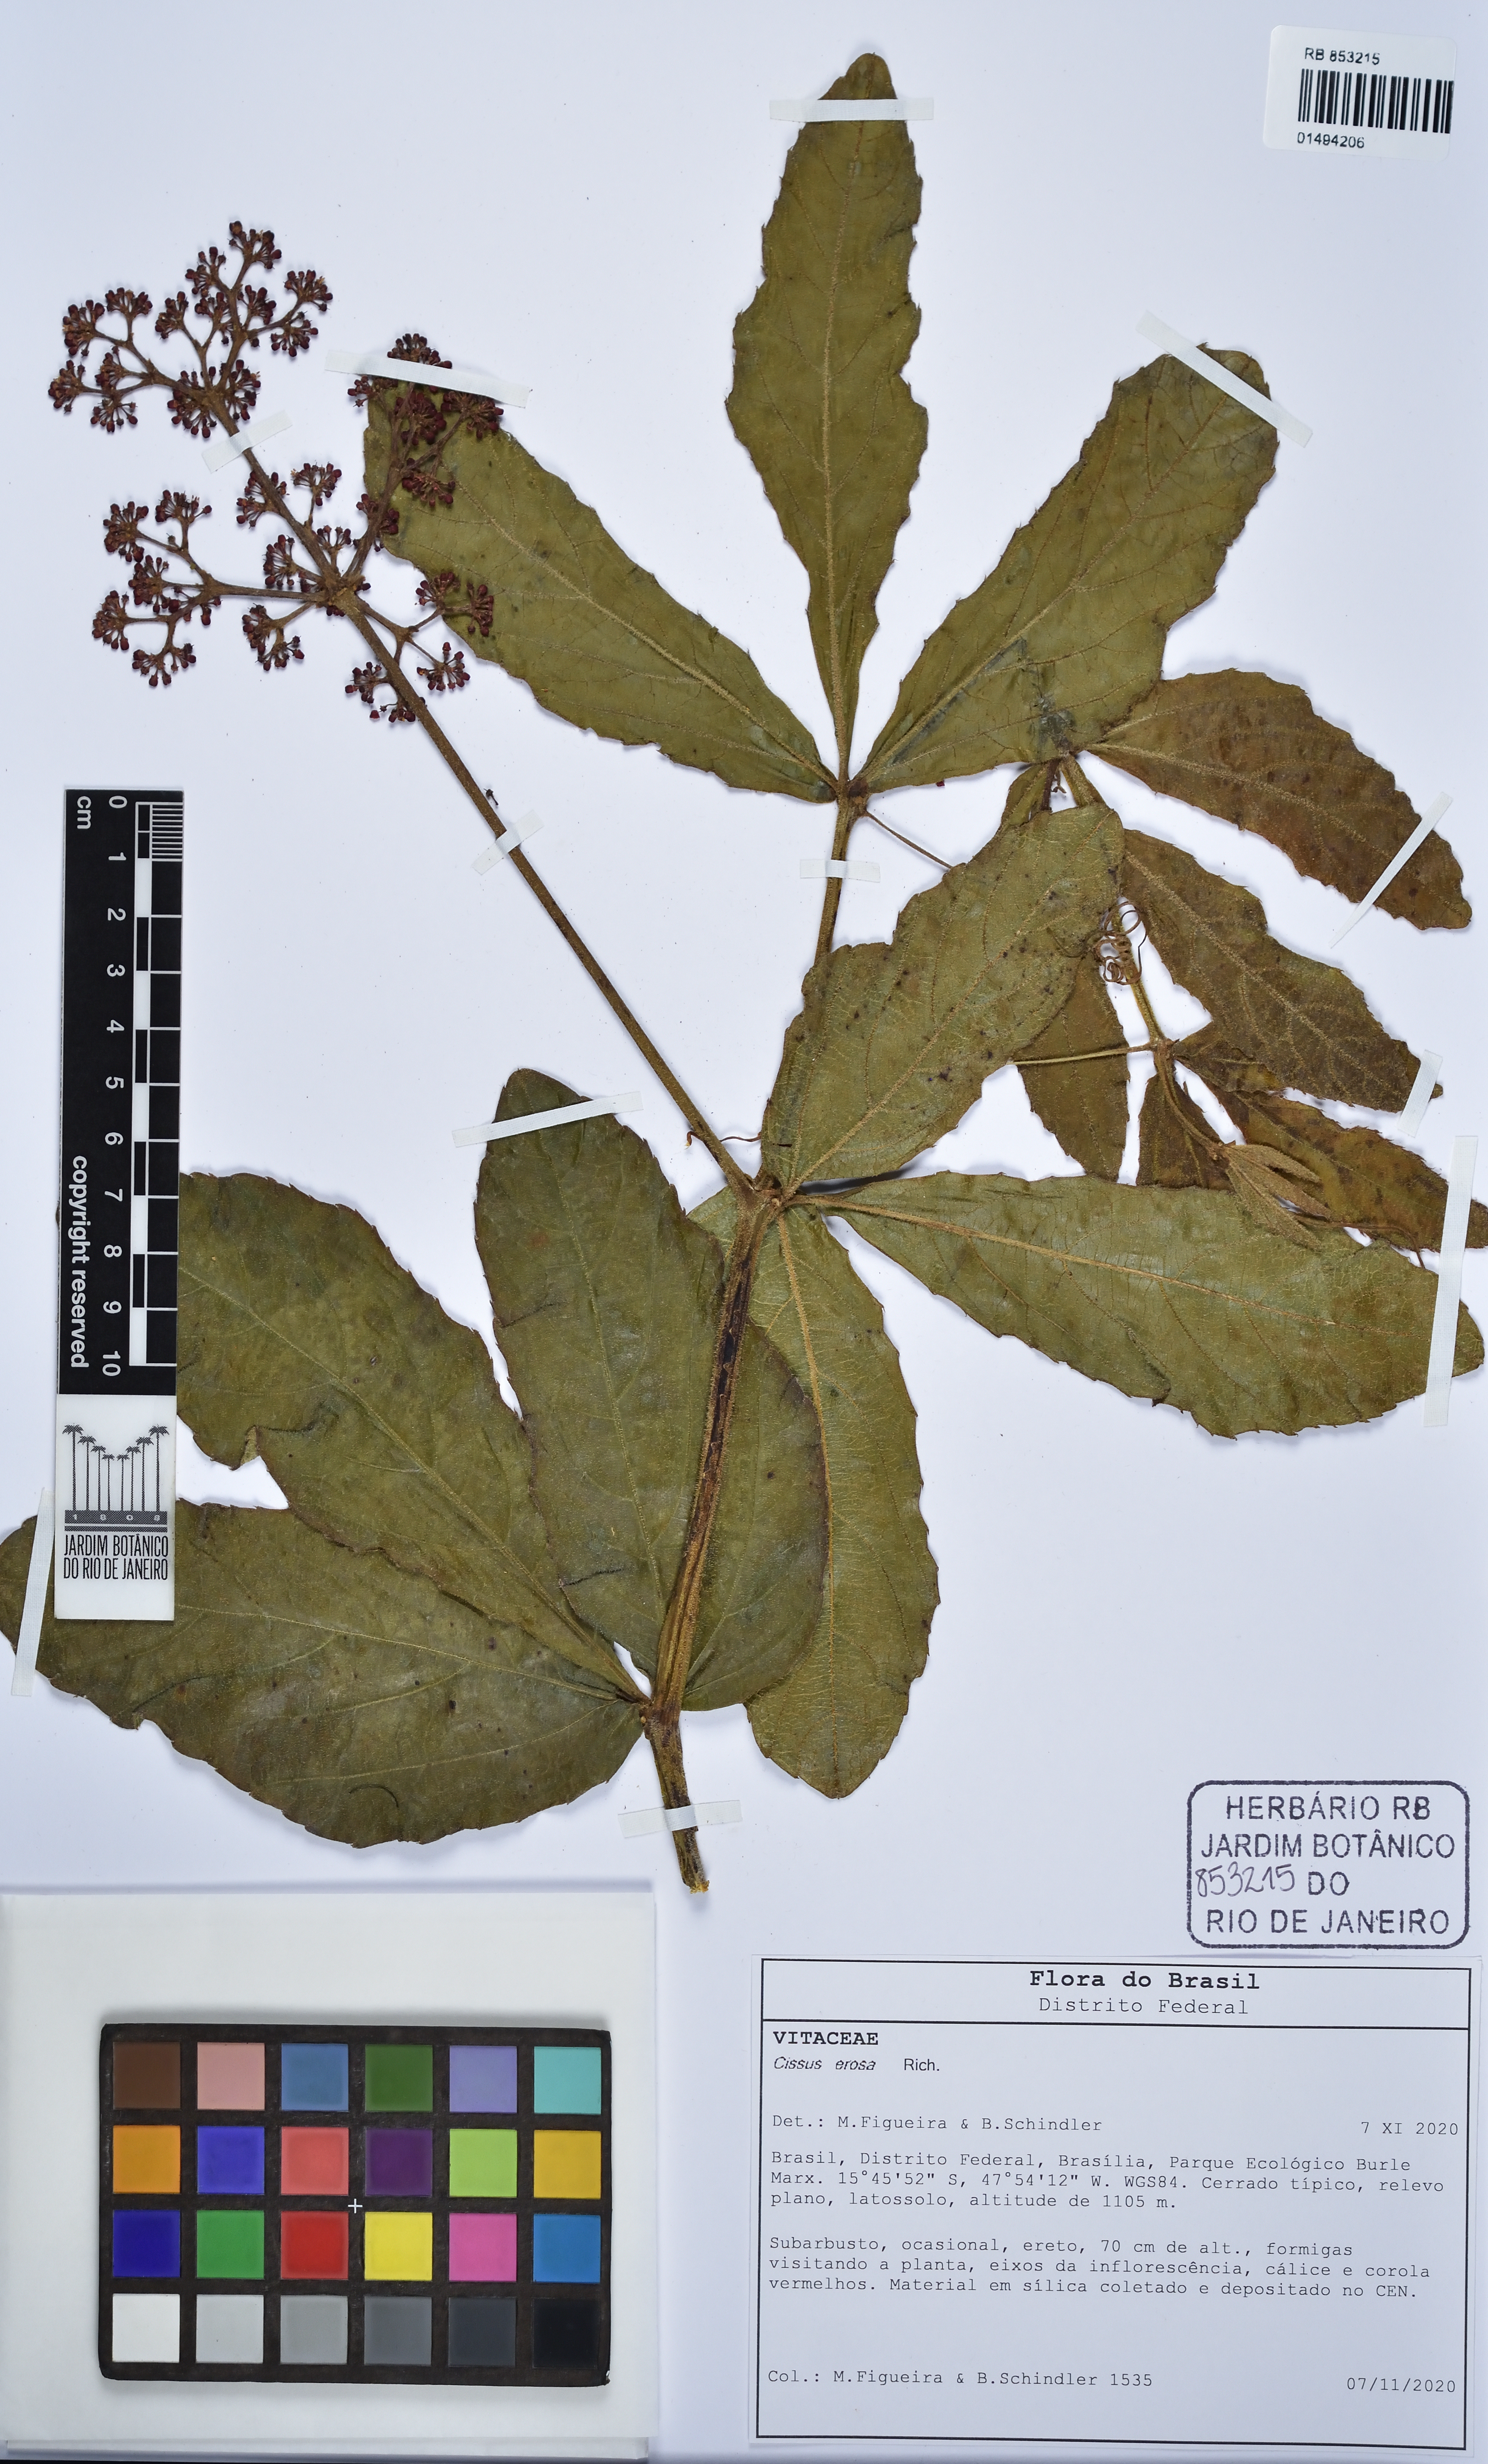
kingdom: Plantae
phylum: Tracheophyta
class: Magnoliopsida
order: Vitales
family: Vitaceae
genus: Cissus
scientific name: Cissus erosa
